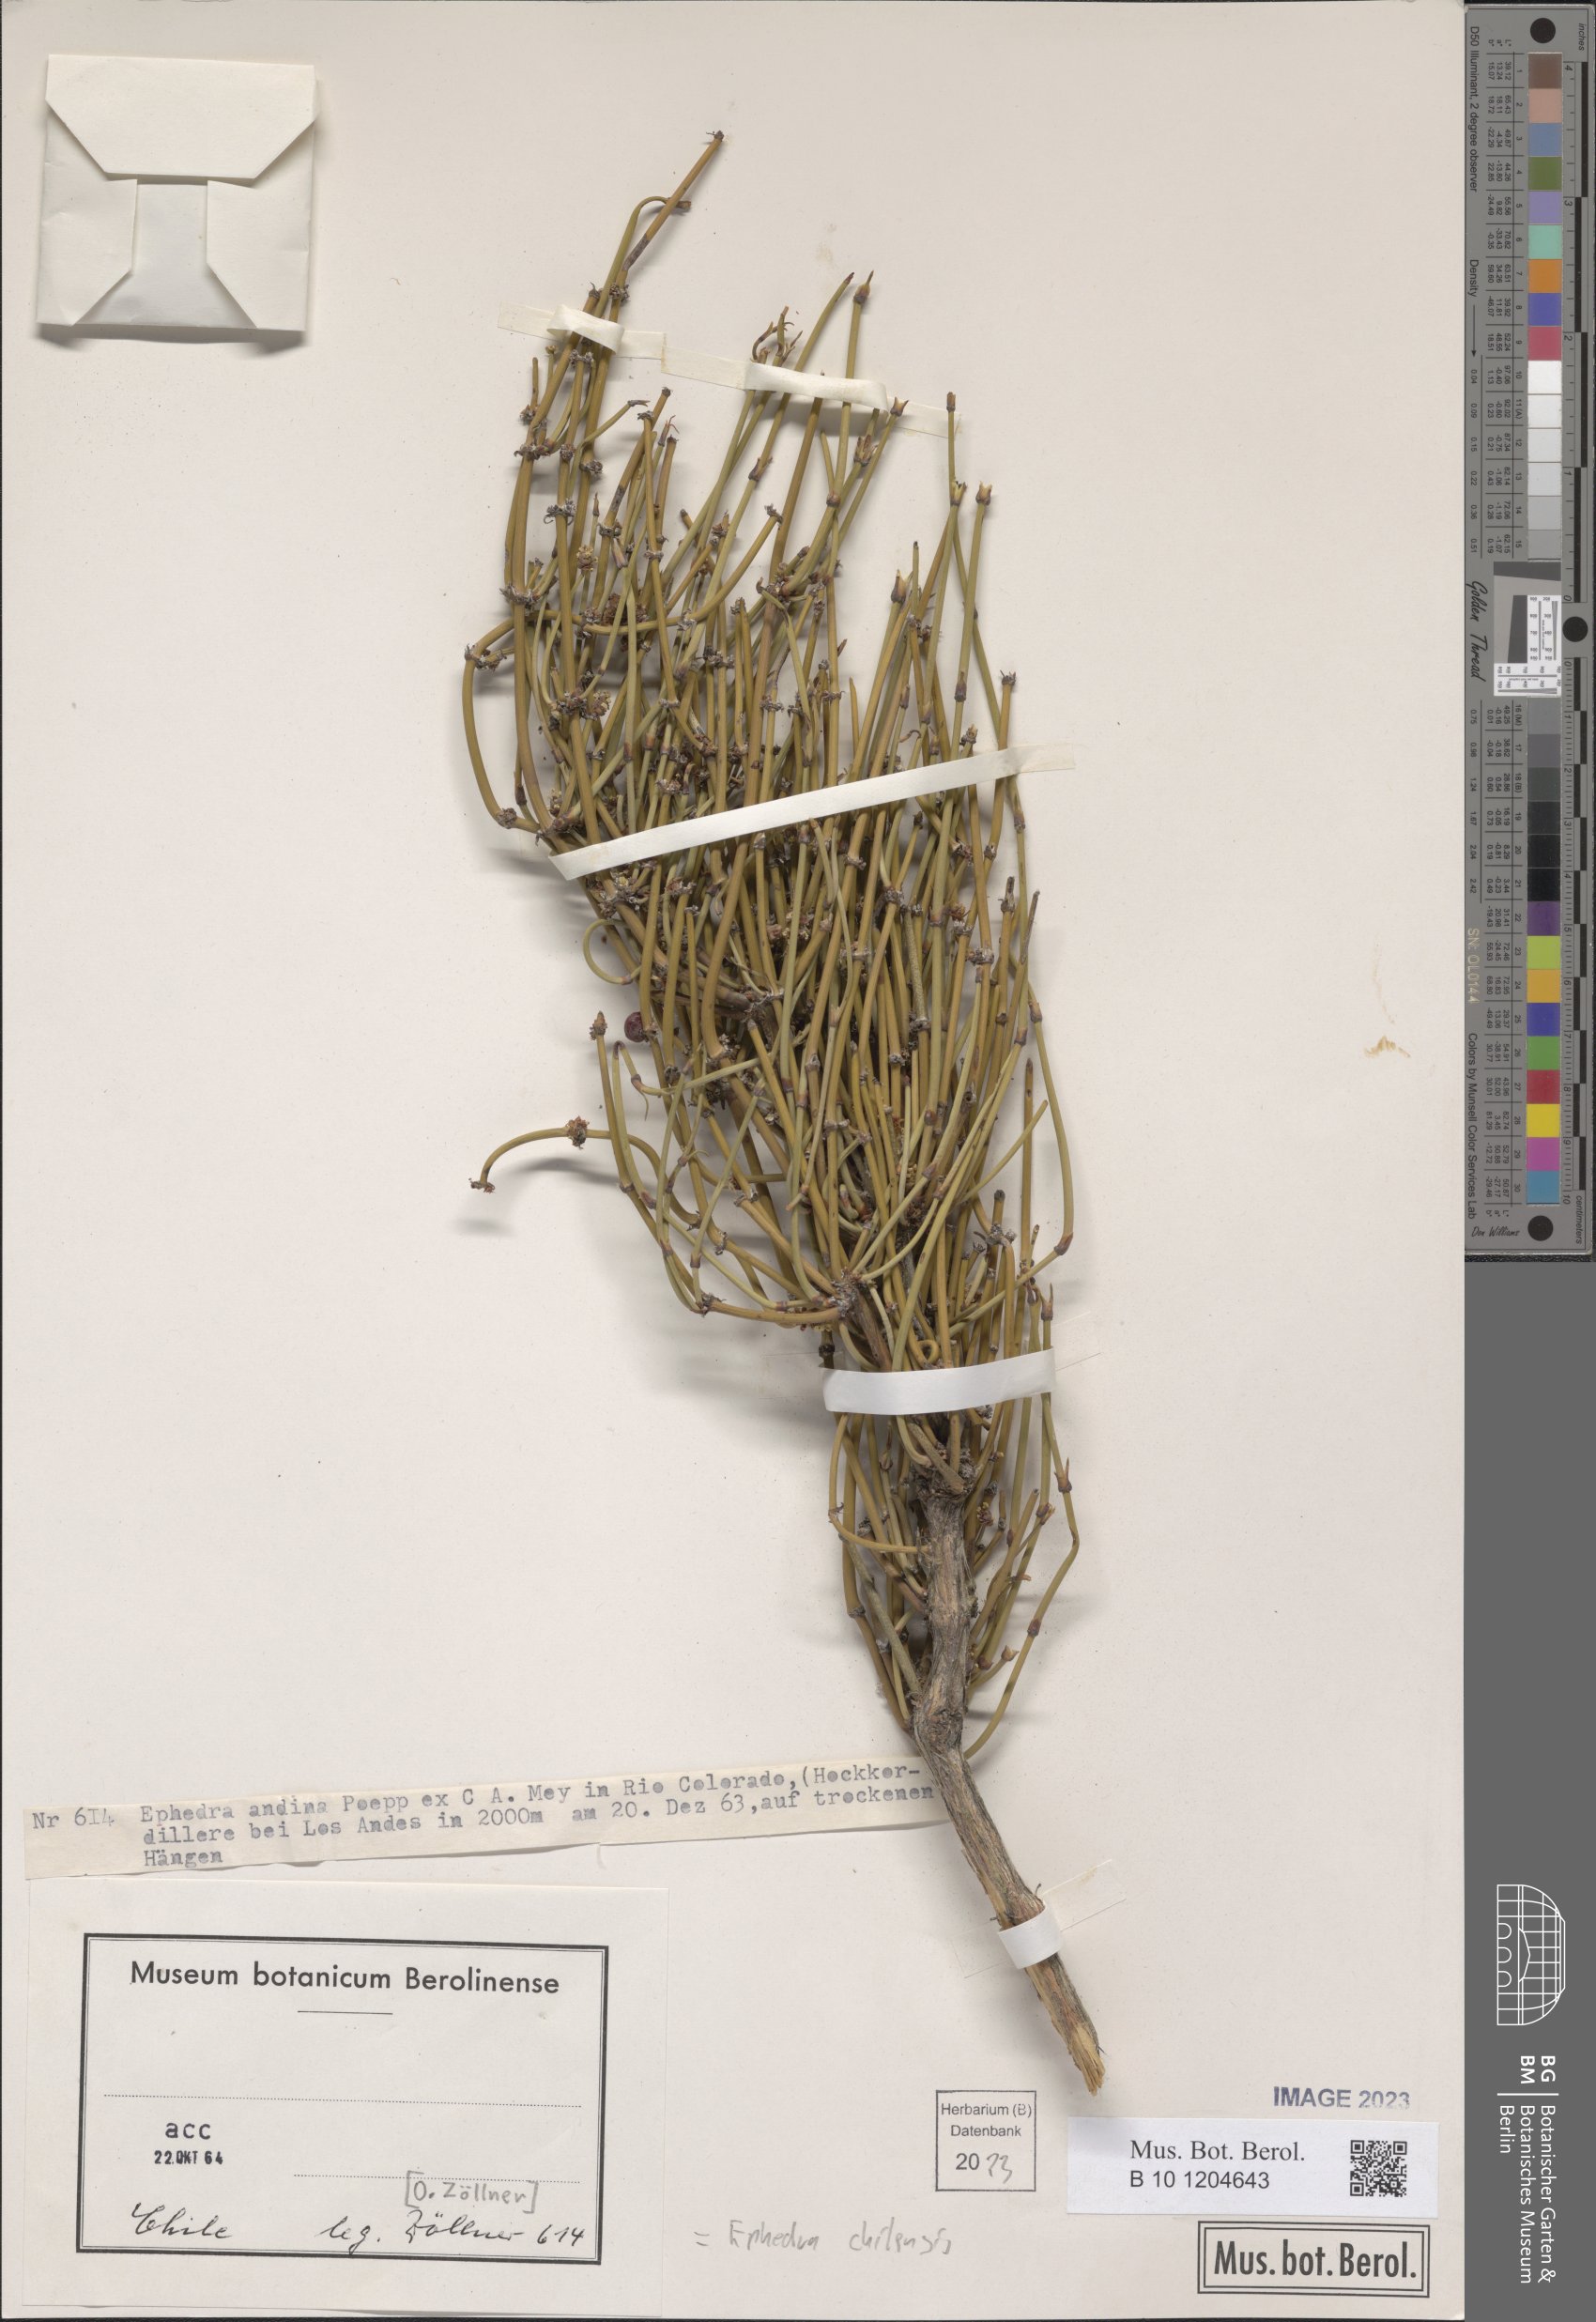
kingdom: Plantae
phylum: Tracheophyta
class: Gnetopsida
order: Ephedrales
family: Ephedraceae
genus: Ephedra
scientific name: Ephedra chilensis
